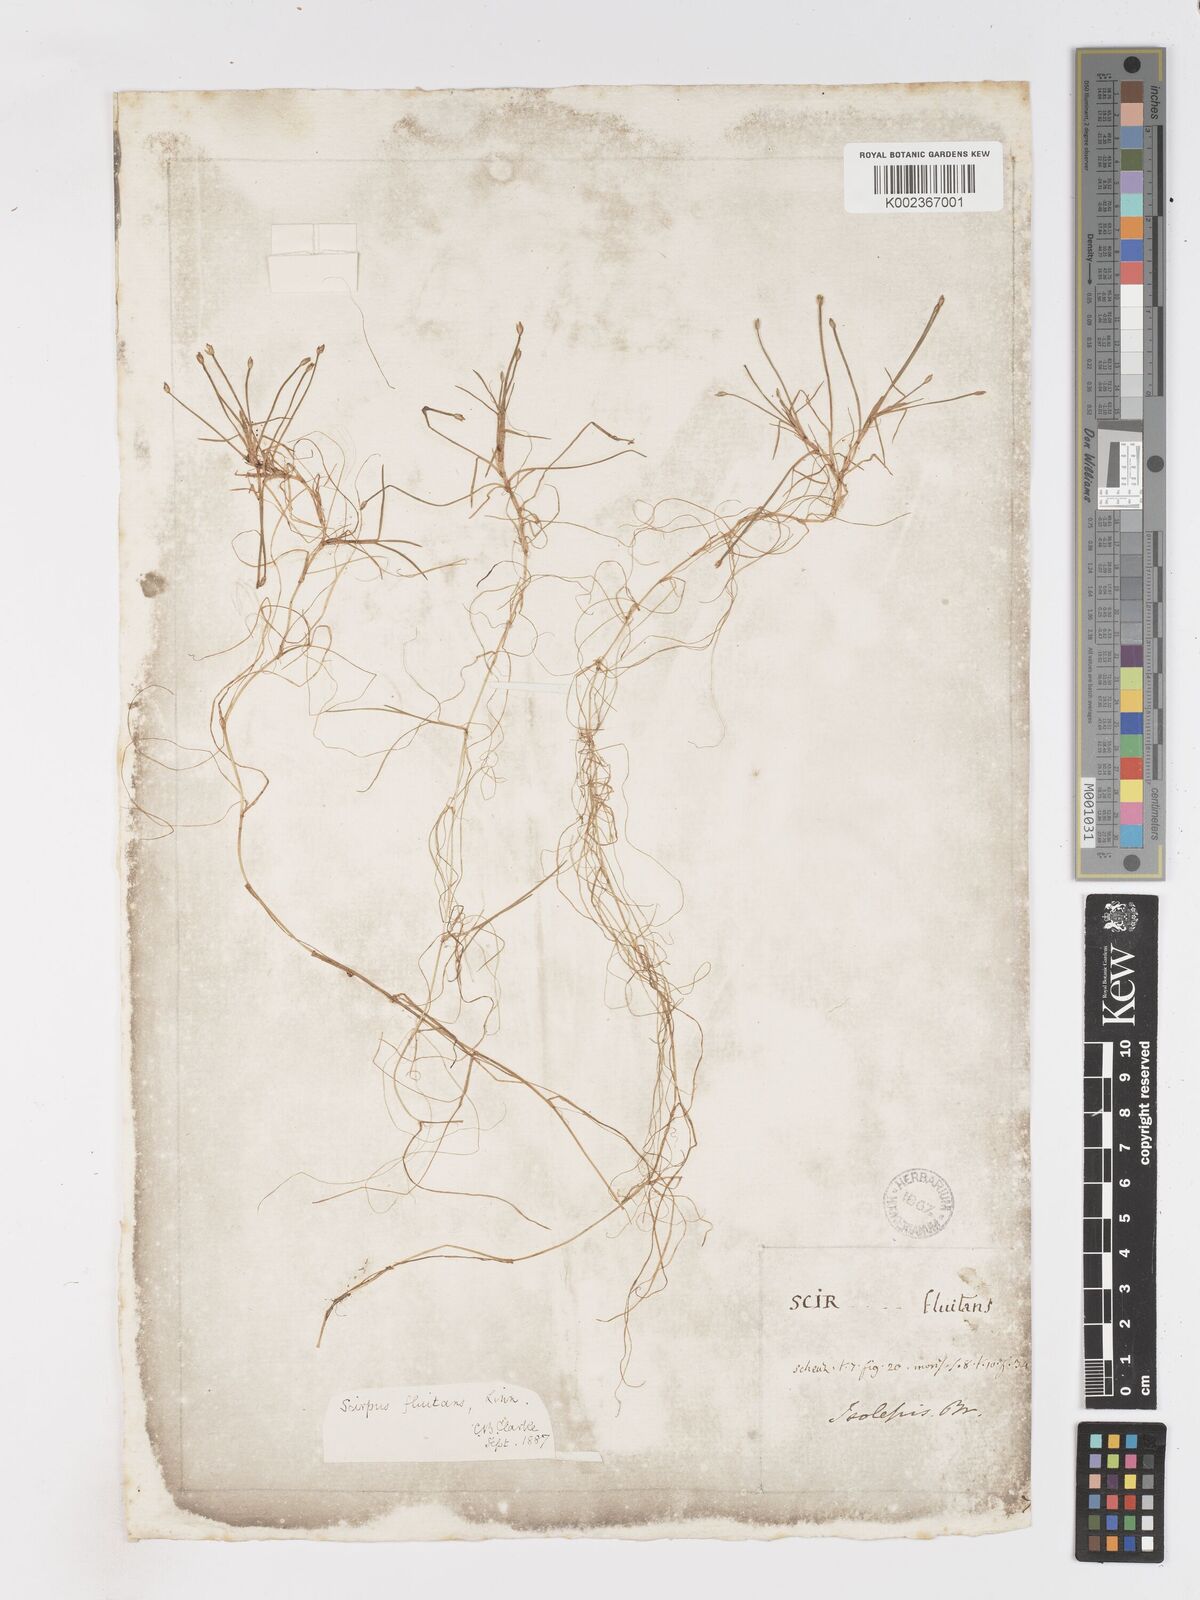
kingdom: Plantae
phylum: Tracheophyta
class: Liliopsida
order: Poales
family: Cyperaceae
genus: Isolepis
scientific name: Isolepis fluitans
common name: Floating club-rush
